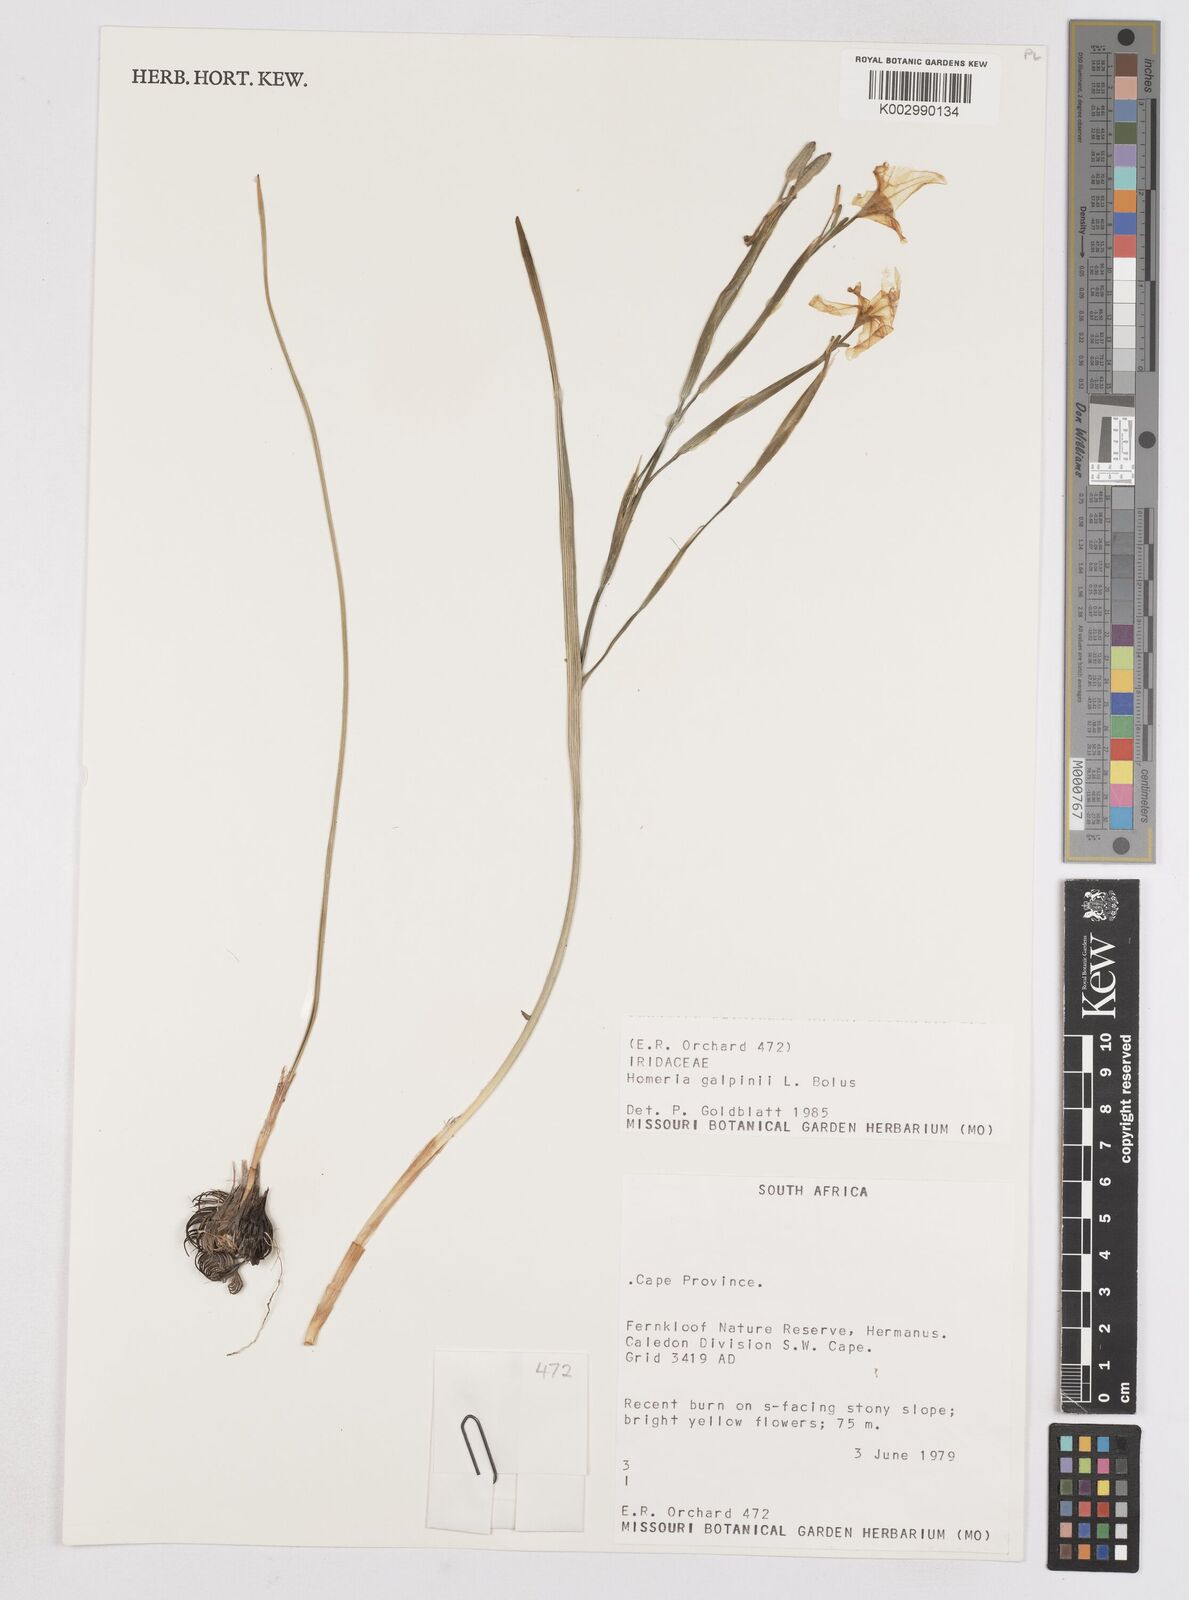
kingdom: Plantae
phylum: Tracheophyta
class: Liliopsida
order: Asparagales
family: Iridaceae
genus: Moraea
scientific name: Moraea
